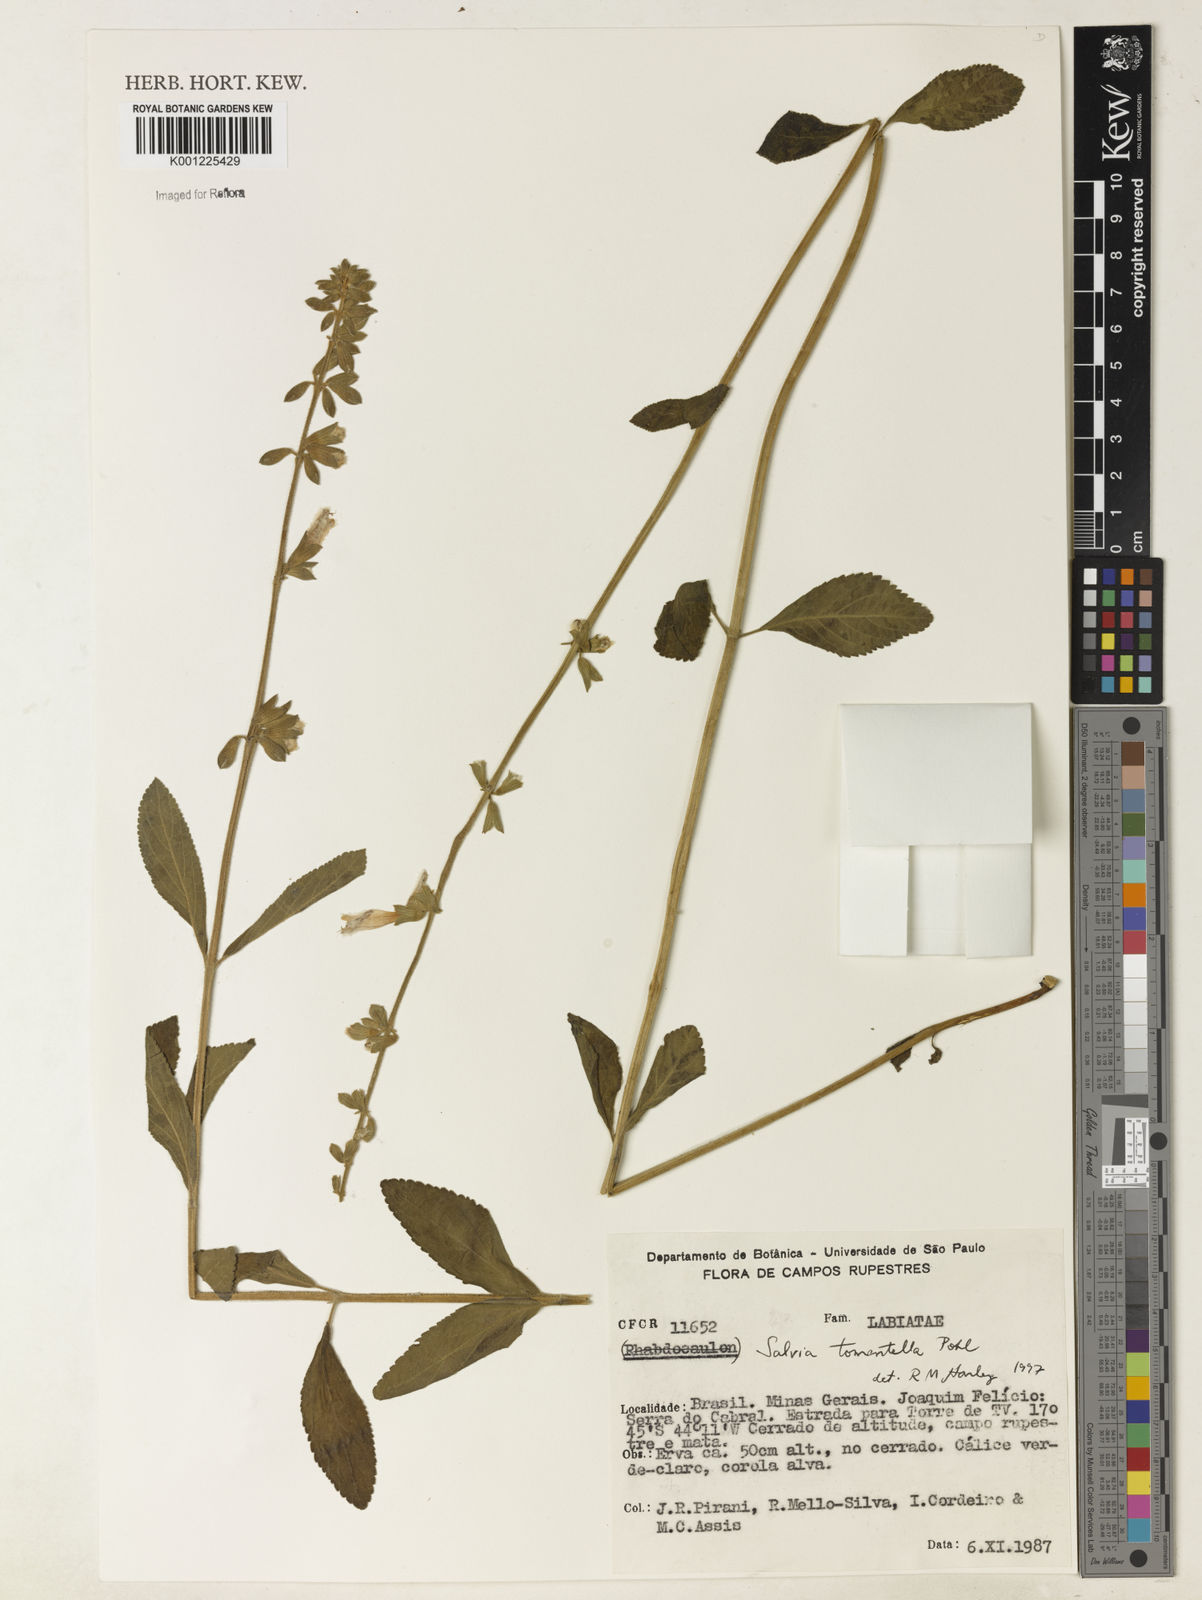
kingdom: Plantae
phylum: Tracheophyta
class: Magnoliopsida
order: Lamiales
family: Lamiaceae
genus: Salvia
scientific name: Salvia tomentella
